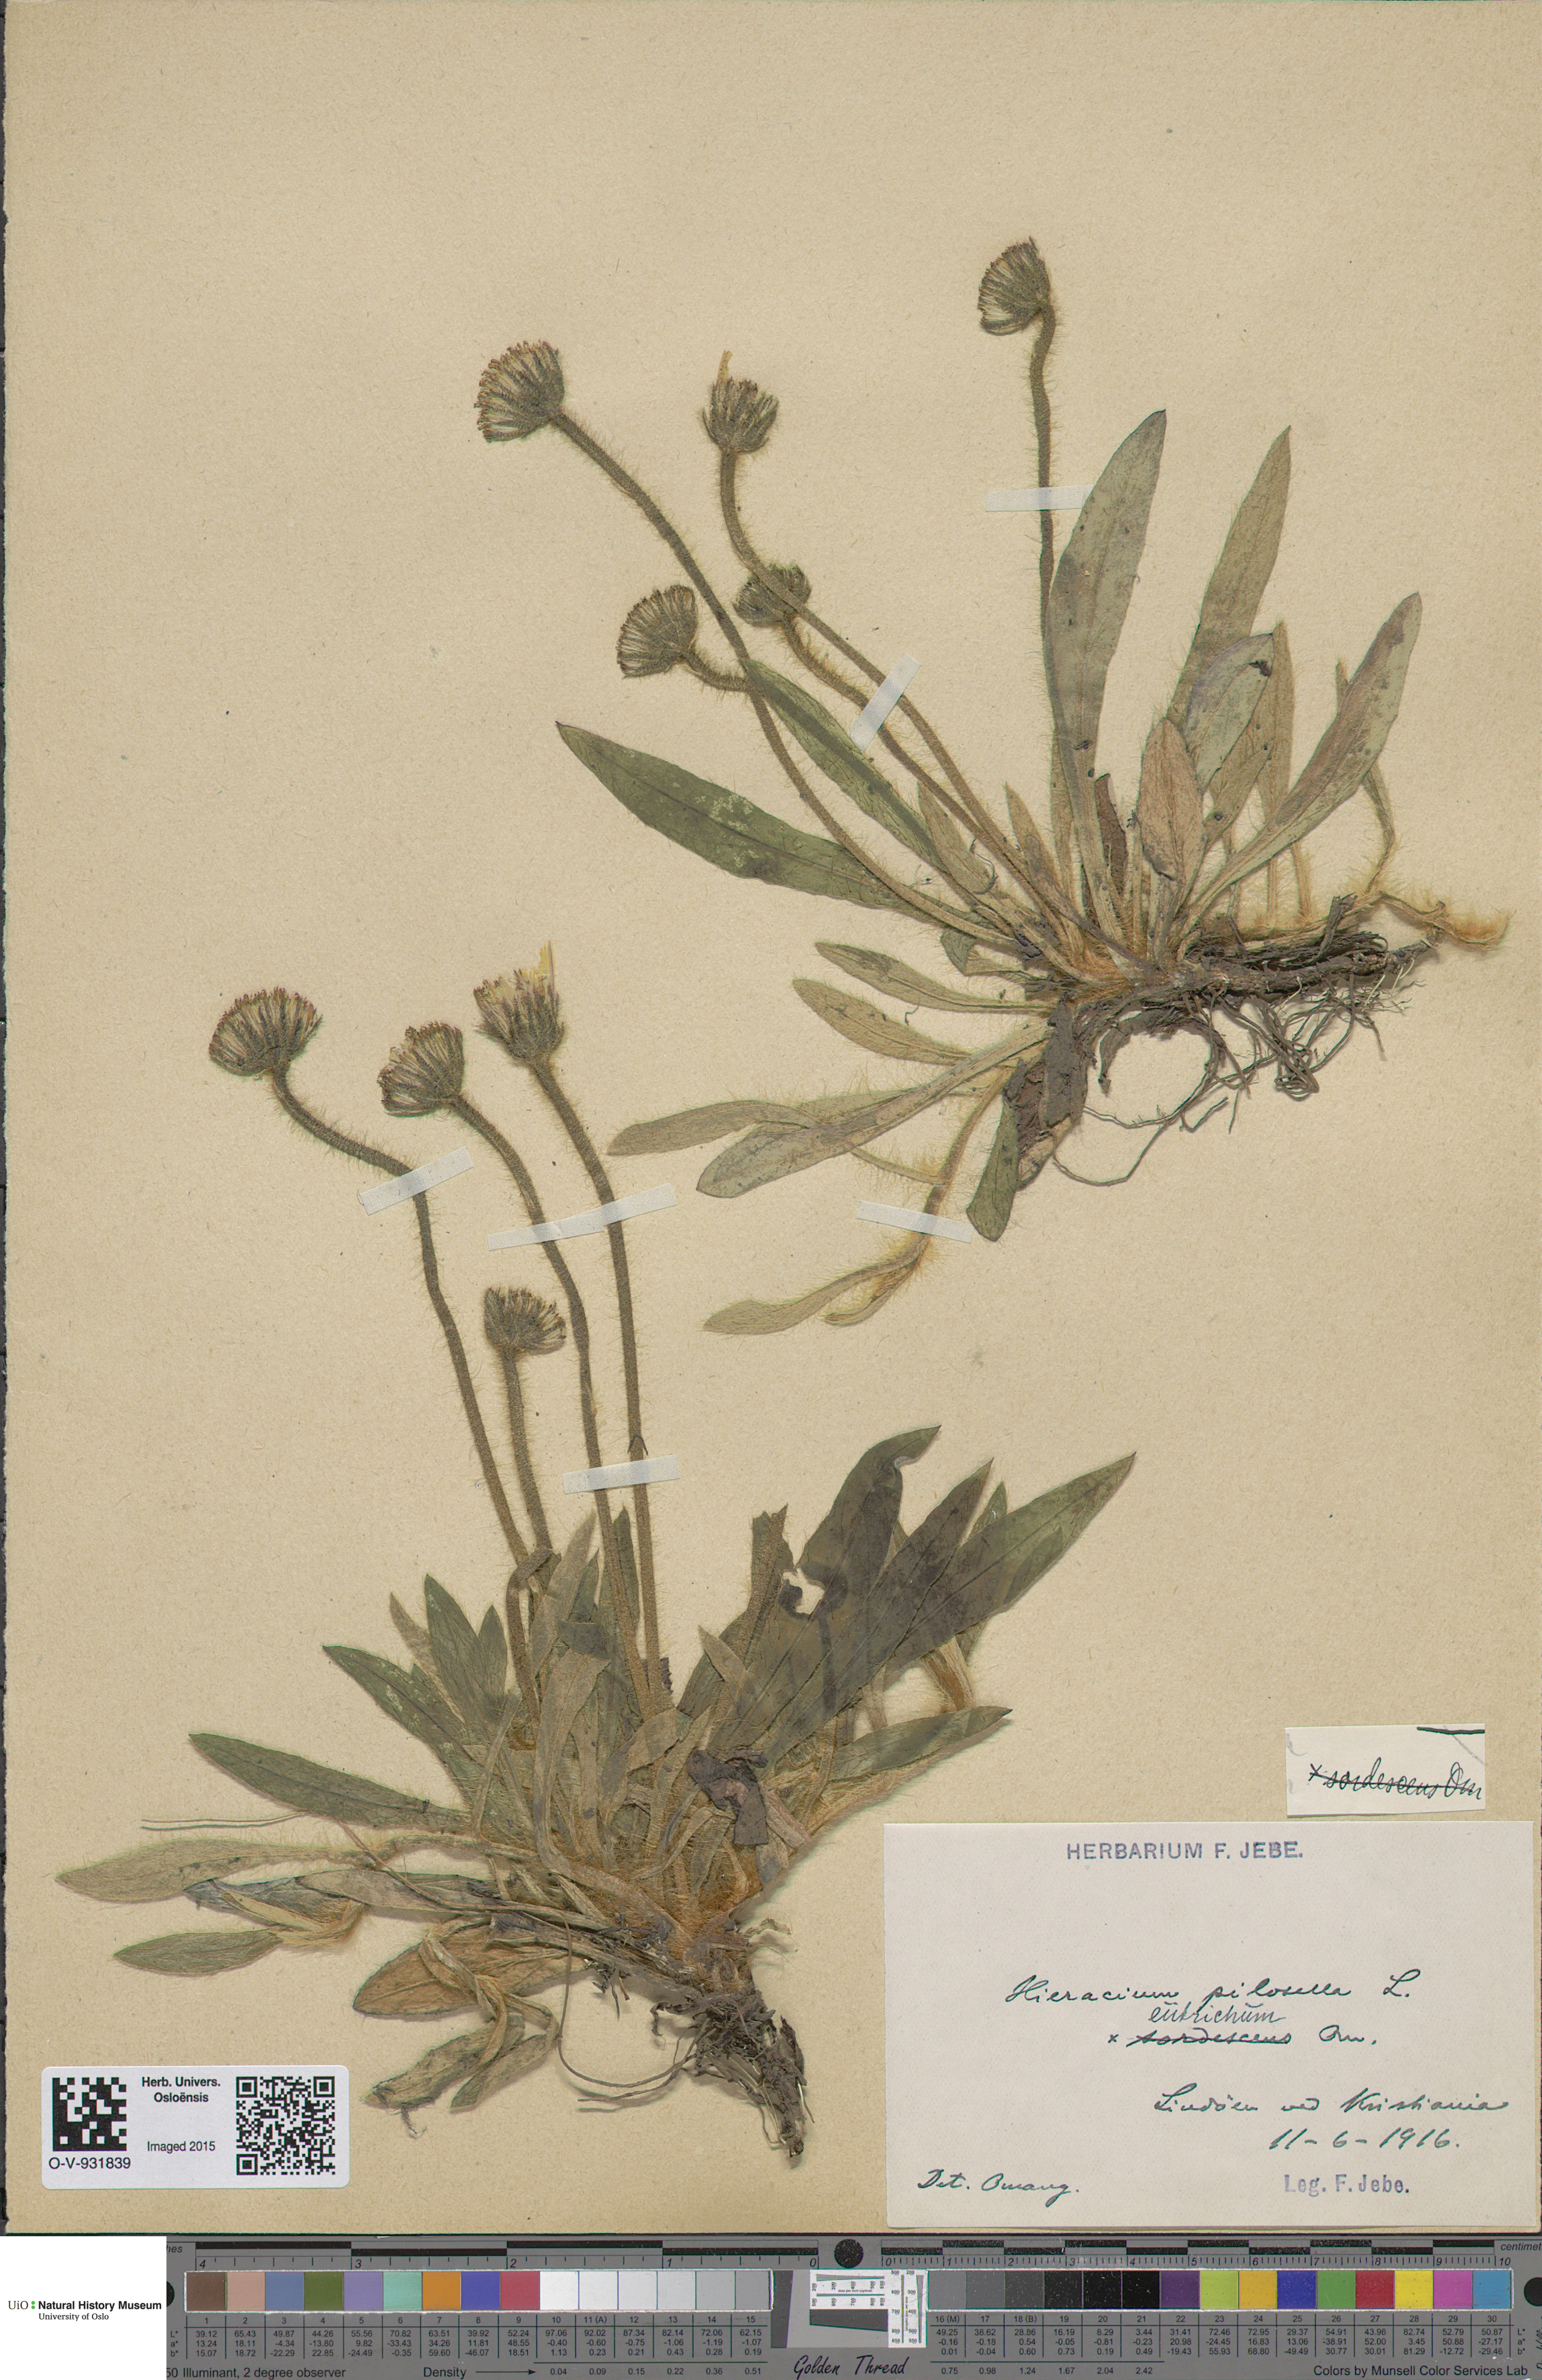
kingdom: Plantae
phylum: Tracheophyta
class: Magnoliopsida
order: Asterales
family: Asteraceae
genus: Pilosella
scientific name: Pilosella officinarum
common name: Mouse-ear hawkweed
